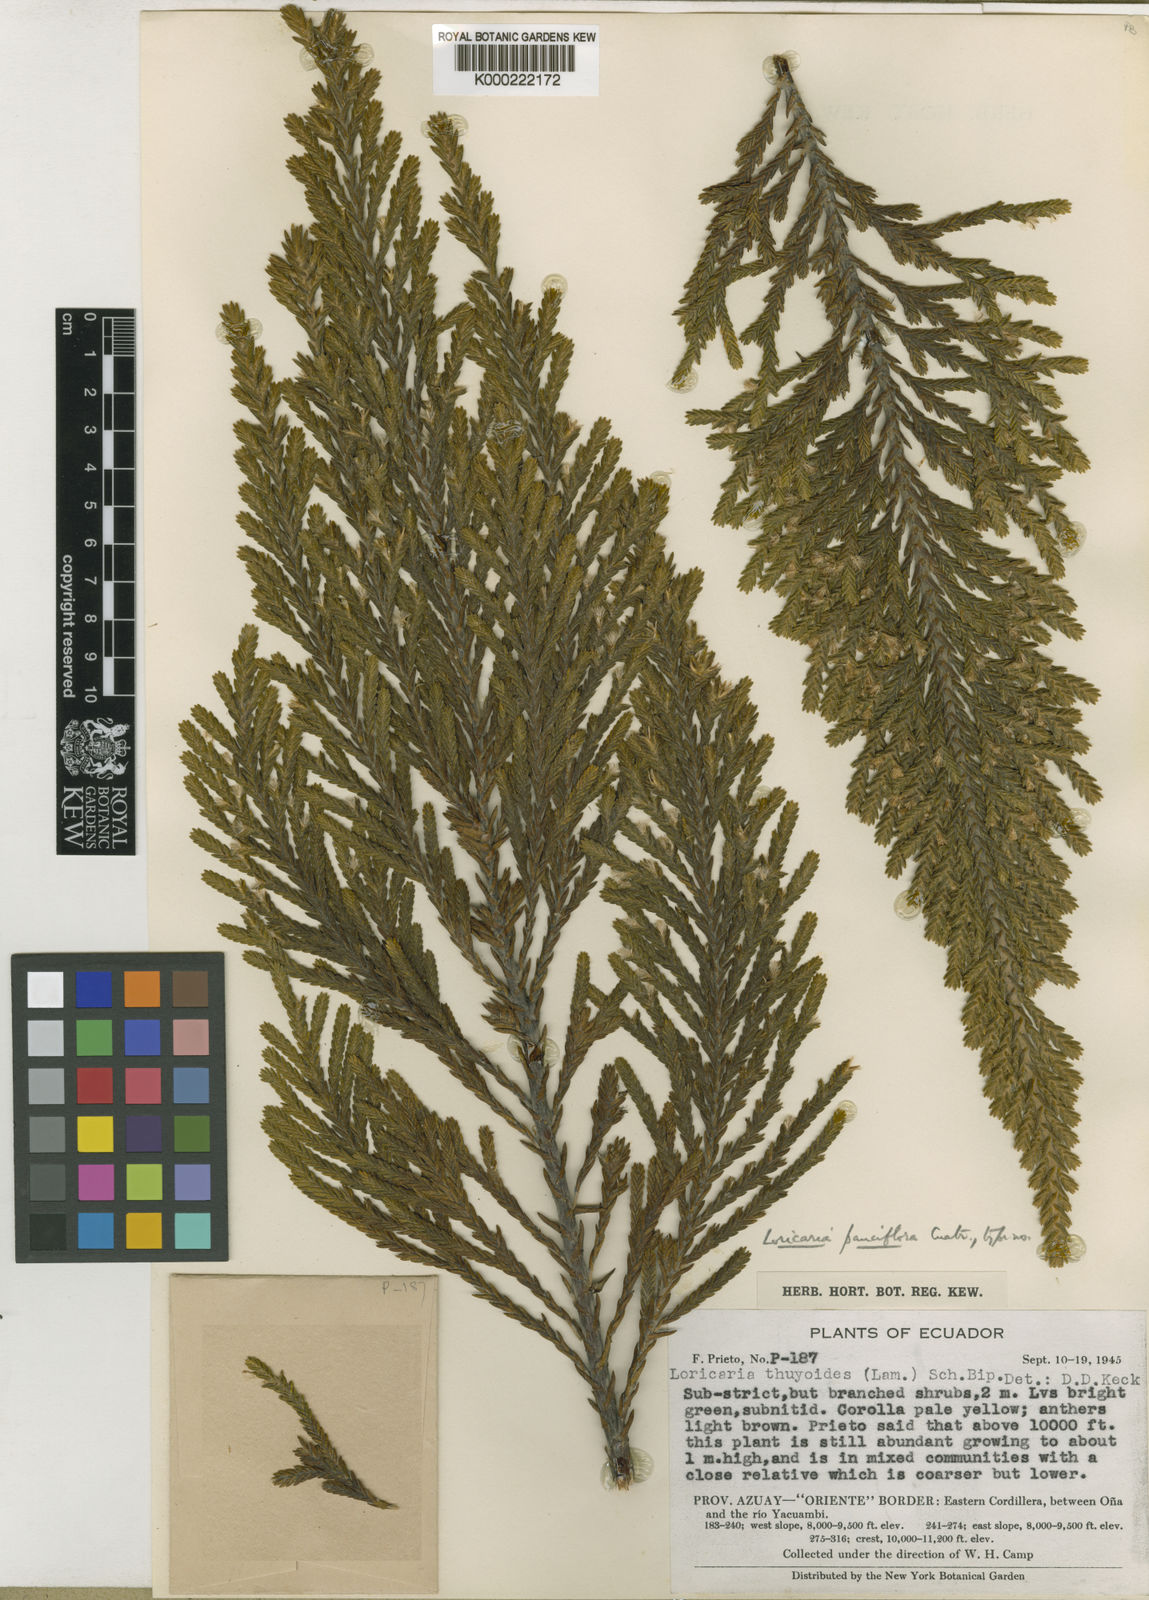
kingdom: Plantae
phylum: Tracheophyta
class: Magnoliopsida
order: Asterales
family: Asteraceae
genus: Andicolea
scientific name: Andicolea pauciflora
